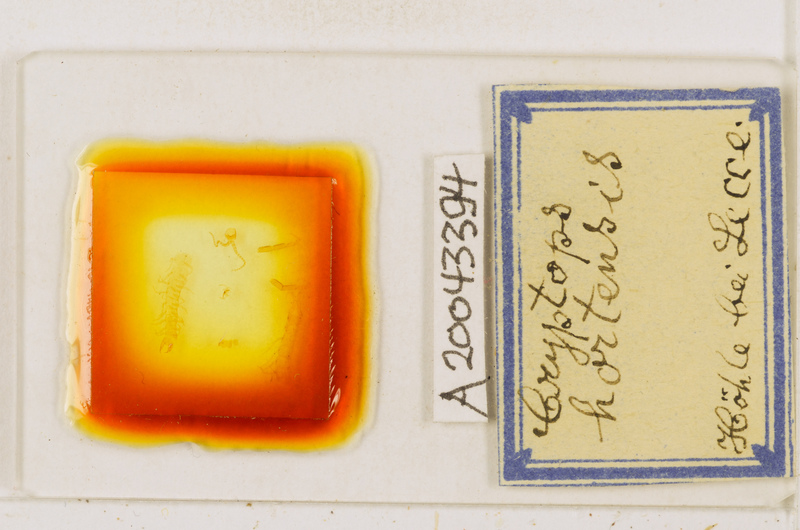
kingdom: Animalia
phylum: Arthropoda
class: Chilopoda
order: Scolopendromorpha
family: Cryptopidae
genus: Cryptops
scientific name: Cryptops hortensis
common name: Centipede
